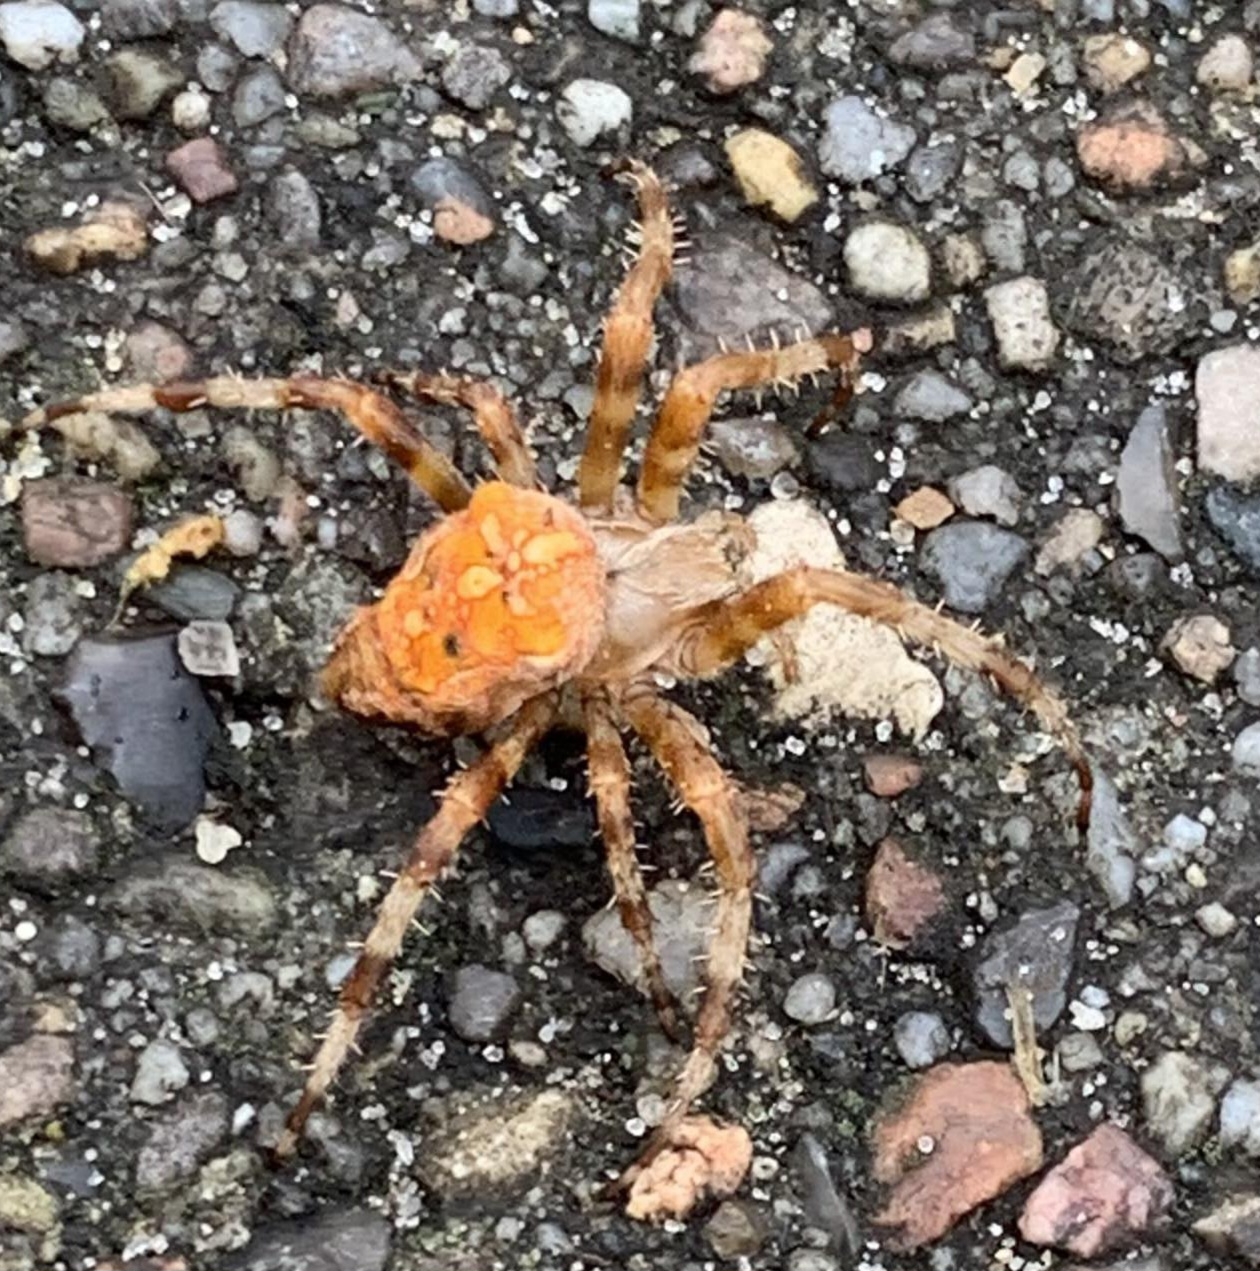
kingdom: Animalia
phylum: Arthropoda
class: Arachnida
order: Araneae
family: Araneidae
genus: Araneus
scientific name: Araneus diadematus
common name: Korsedderkop
